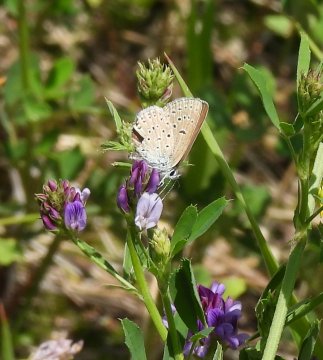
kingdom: Animalia
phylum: Arthropoda
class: Insecta
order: Lepidoptera
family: Lycaenidae
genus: Plebejus
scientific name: Plebejus saepiolus
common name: Greenish Blue
